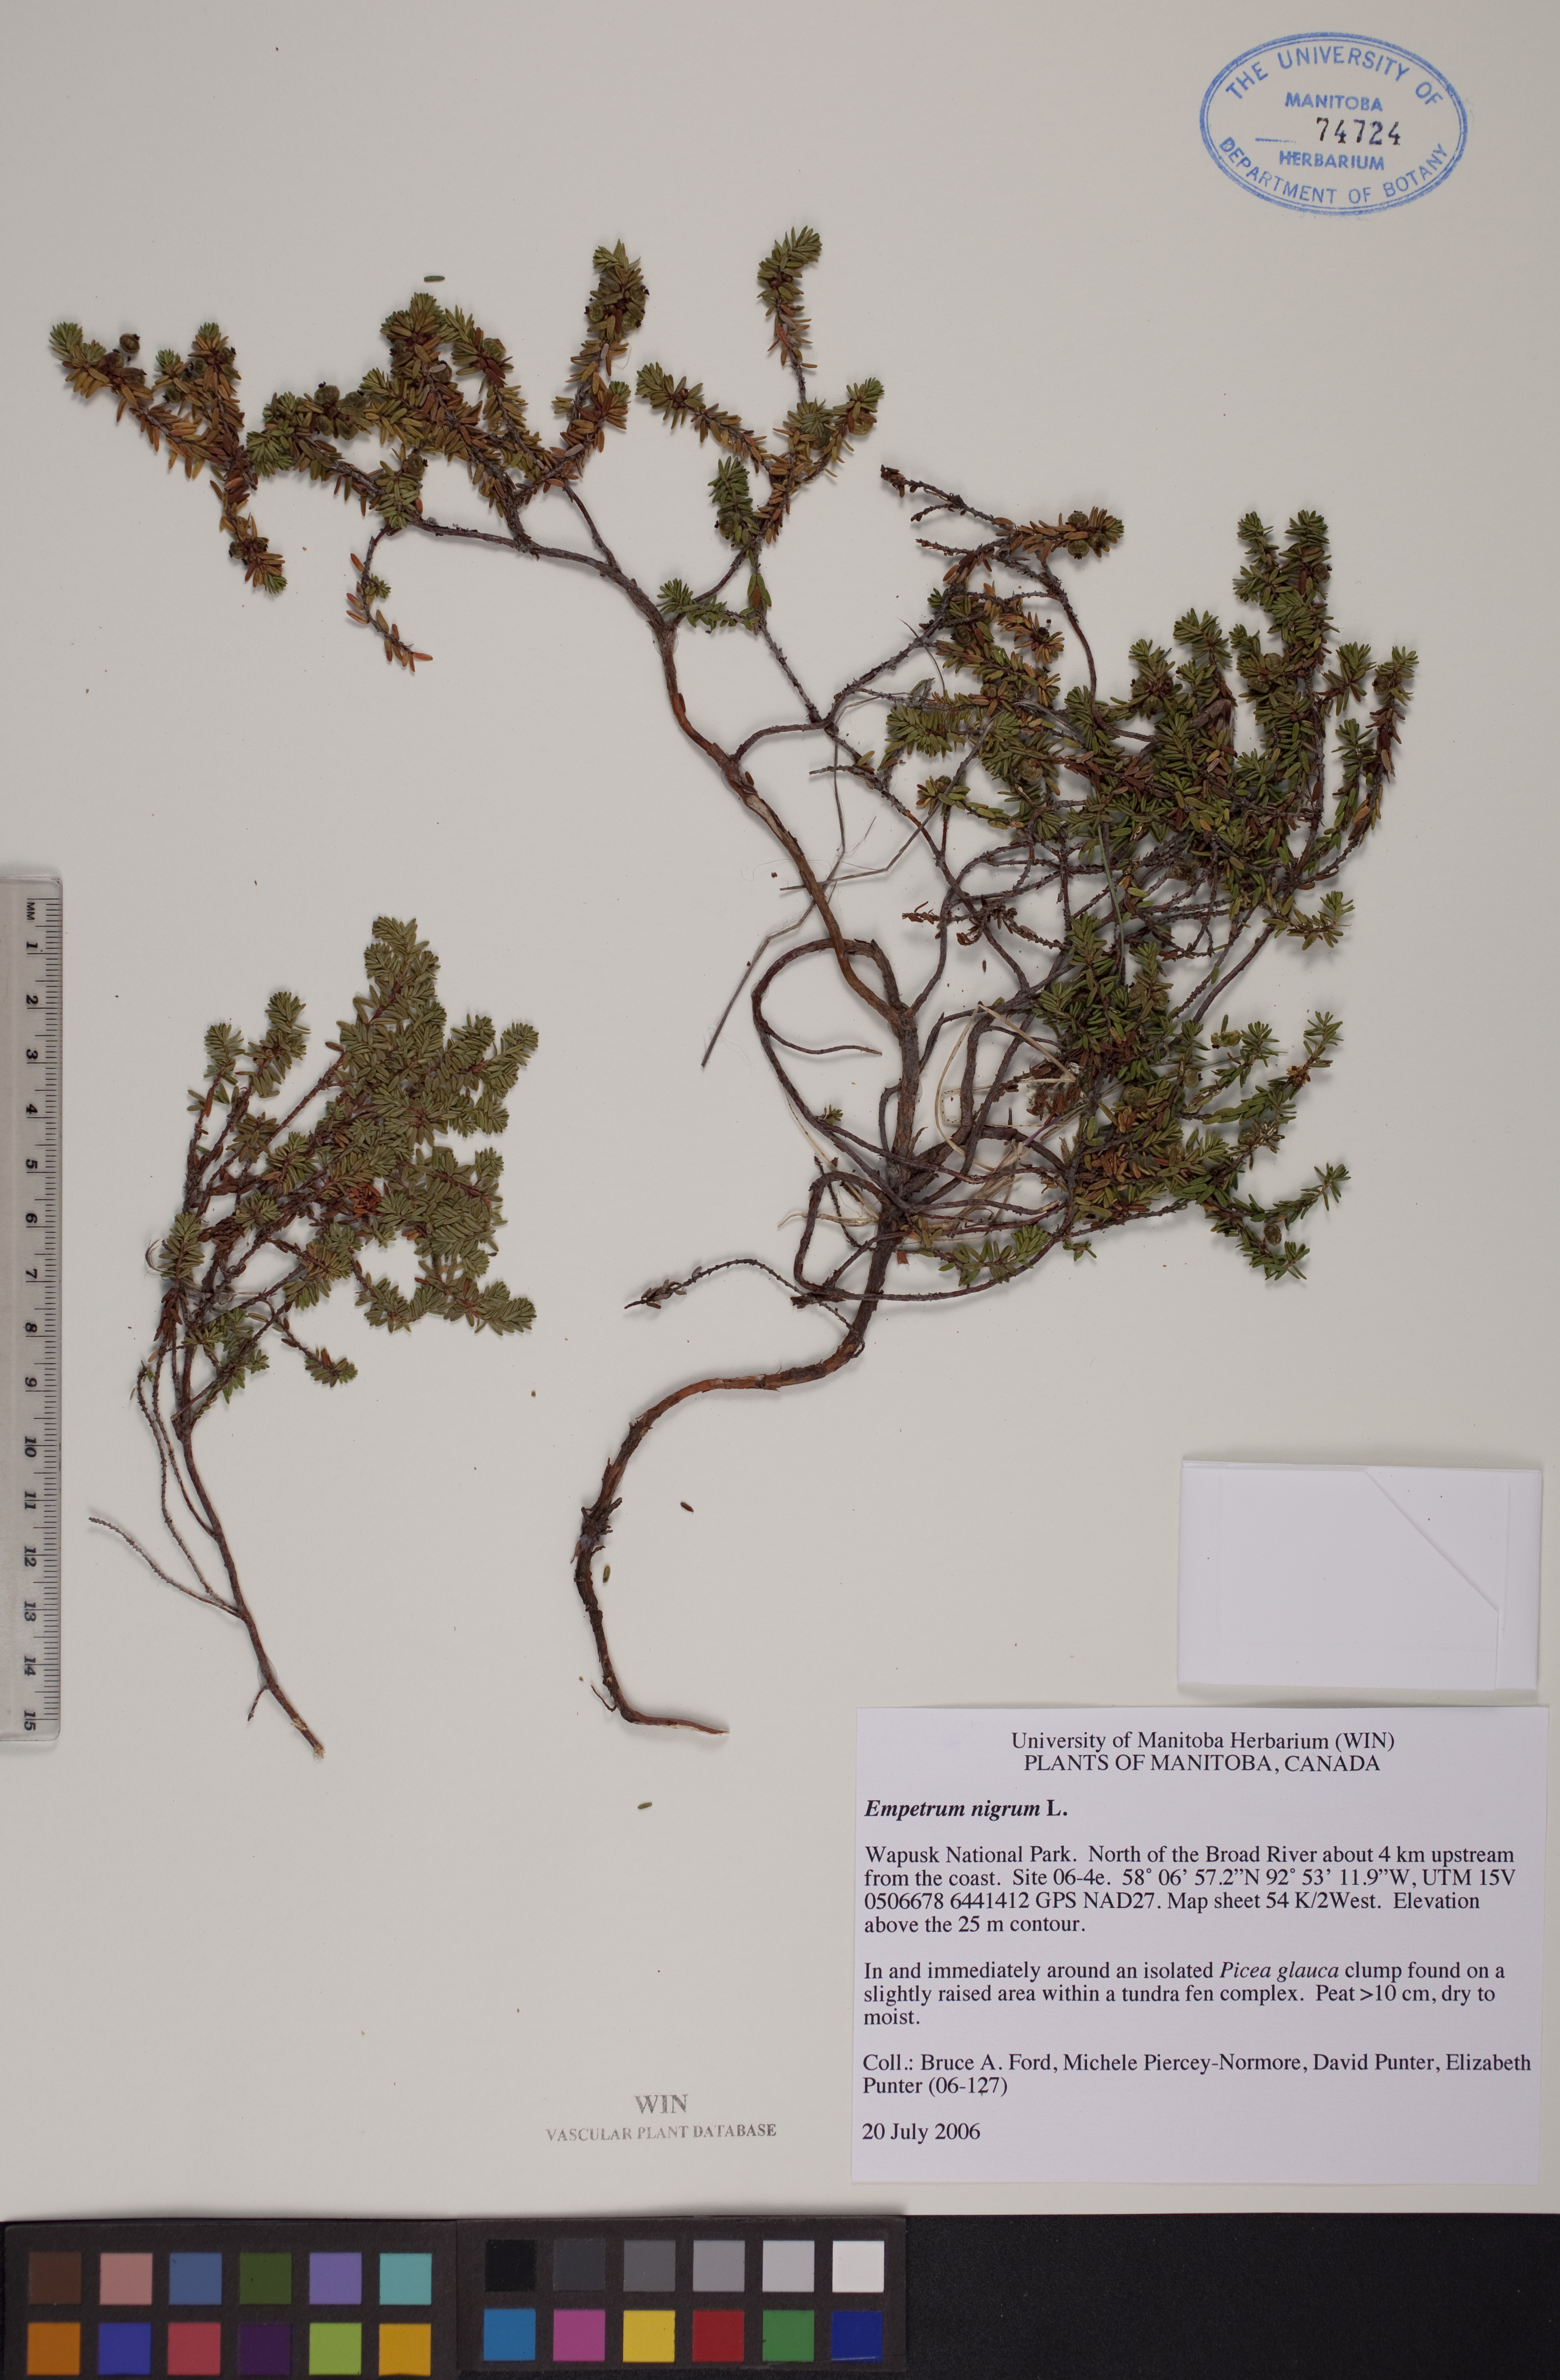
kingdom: Plantae
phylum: Tracheophyta
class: Magnoliopsida
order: Ericales
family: Ericaceae
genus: Empetrum
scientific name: Empetrum nigrum
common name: Black crowberry
